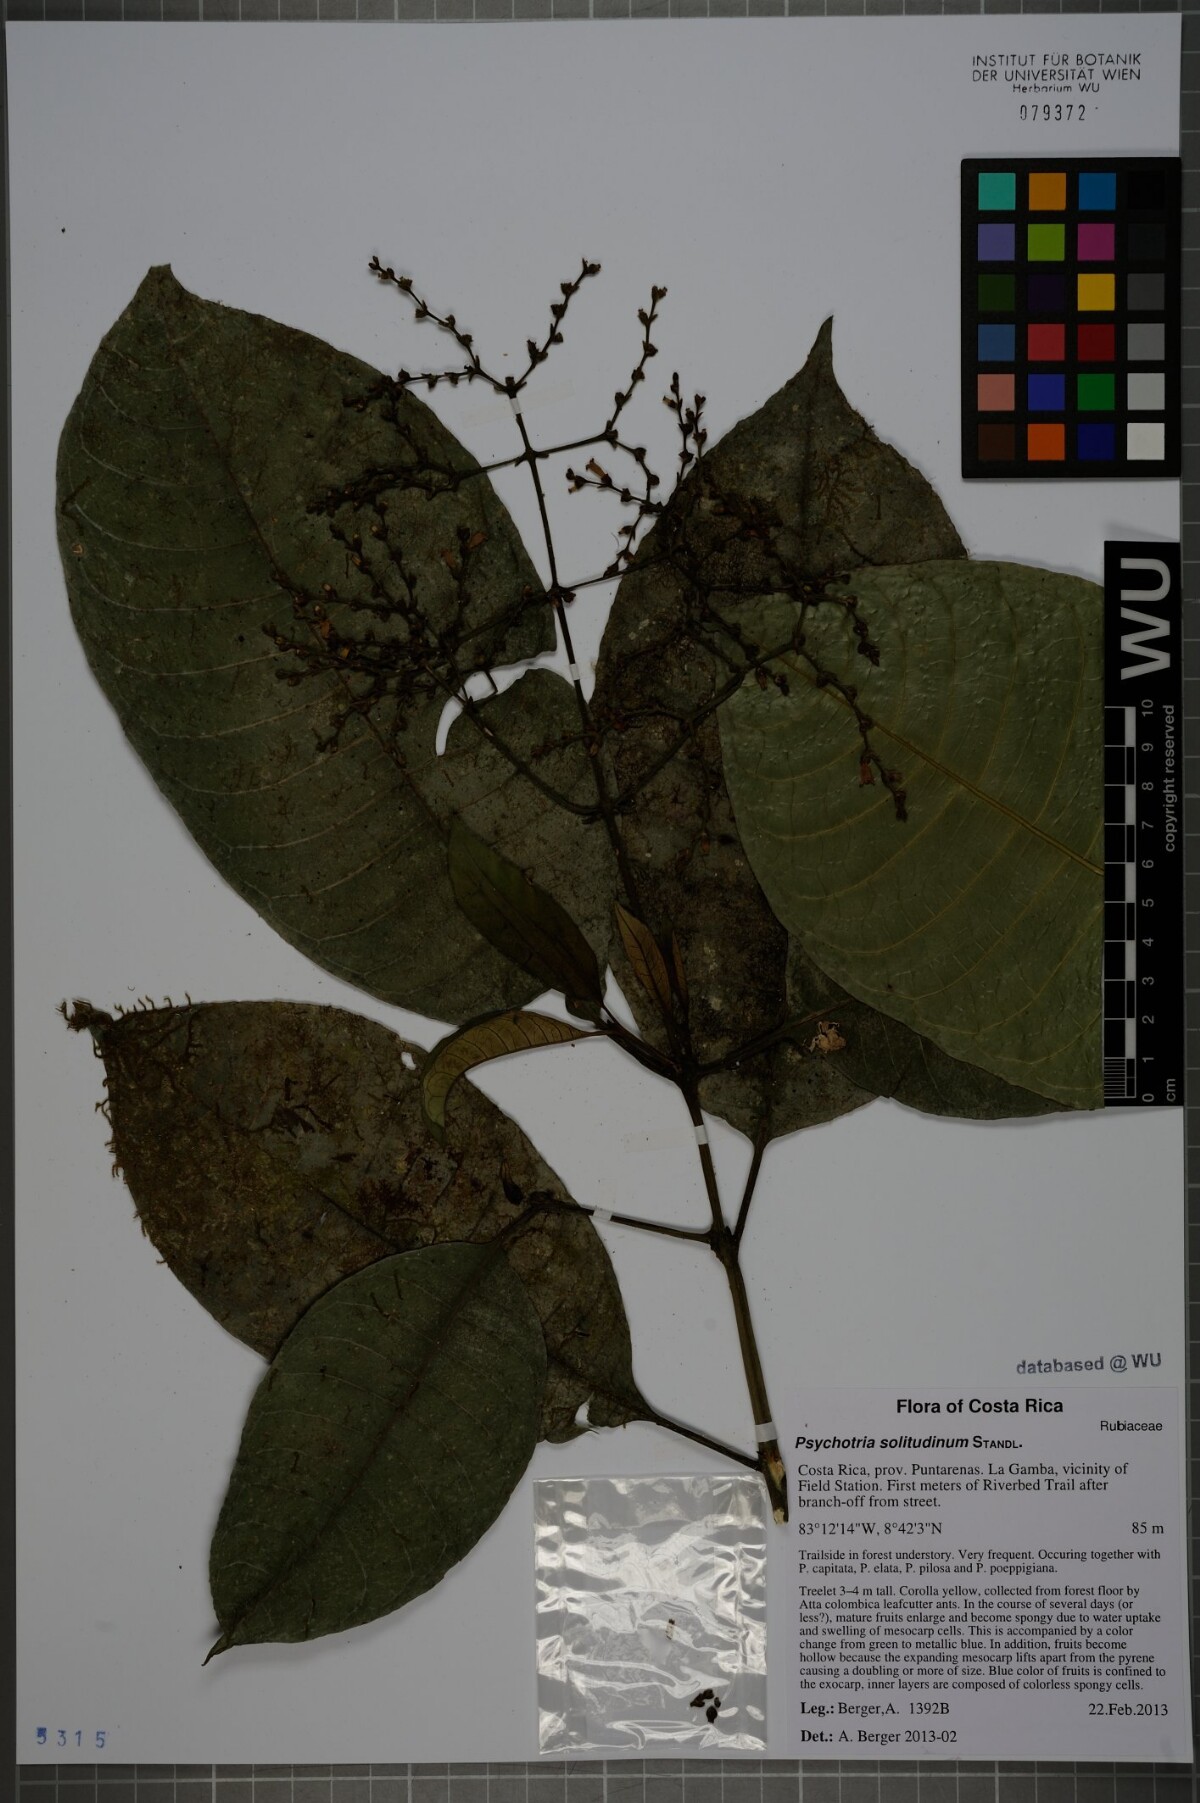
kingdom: Plantae
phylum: Tracheophyta
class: Magnoliopsida
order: Gentianales
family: Rubiaceae
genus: Palicourea
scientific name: Palicourea solitudinum
